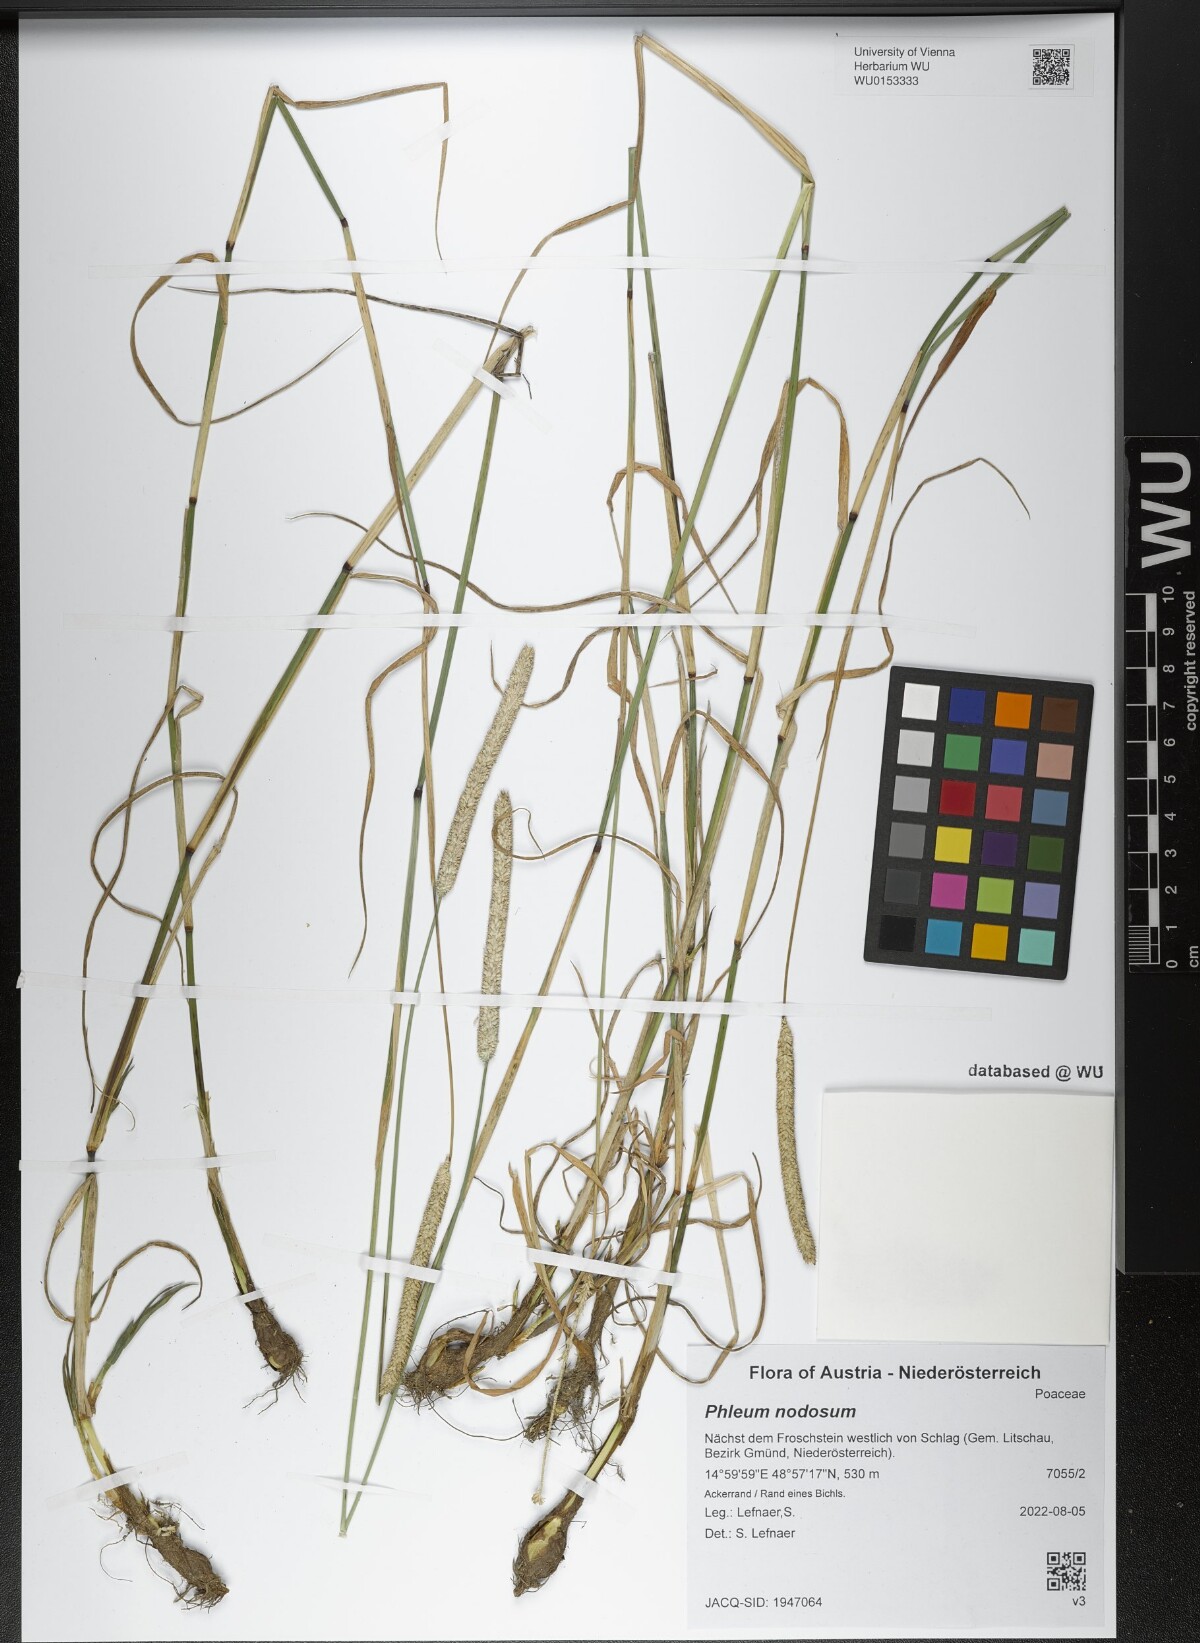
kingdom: Plantae
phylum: Tracheophyta
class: Liliopsida
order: Poales
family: Poaceae
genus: Phleum
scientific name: Phleum pratense
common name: Timothy grass
